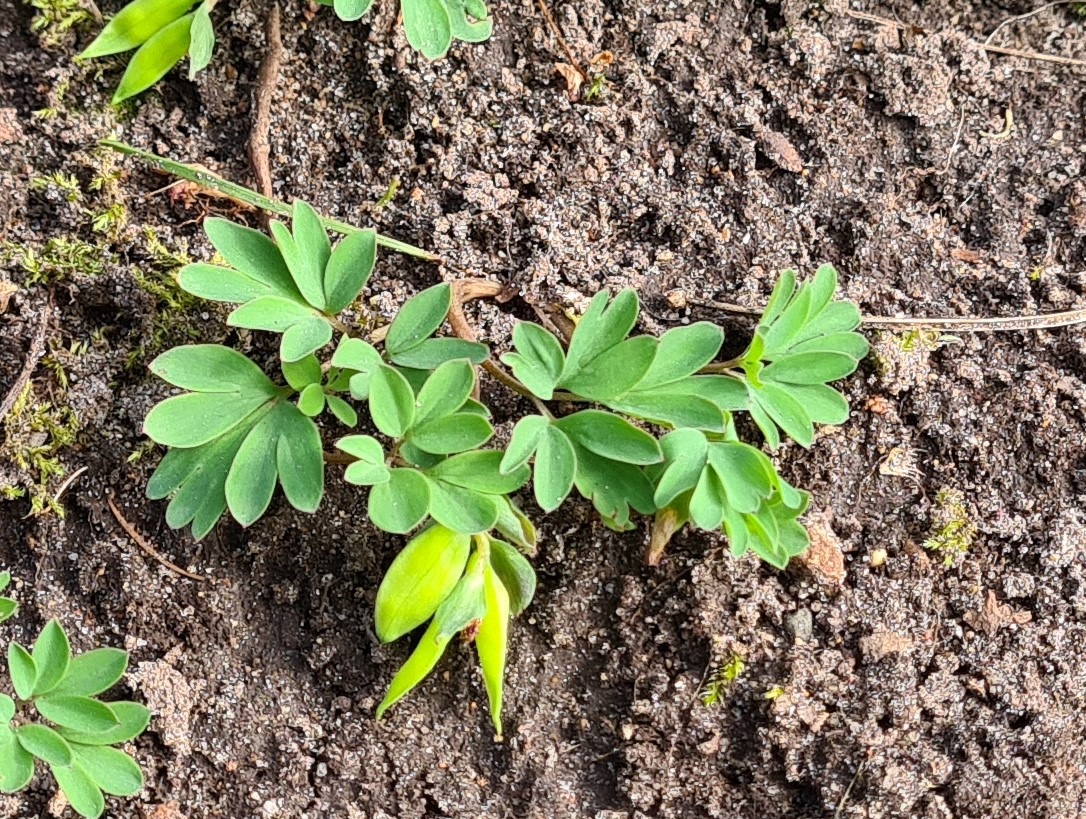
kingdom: Plantae
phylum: Tracheophyta
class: Magnoliopsida
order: Ranunculales
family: Papaveraceae
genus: Corydalis
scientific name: Corydalis intermedia
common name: Liden lærkespore
